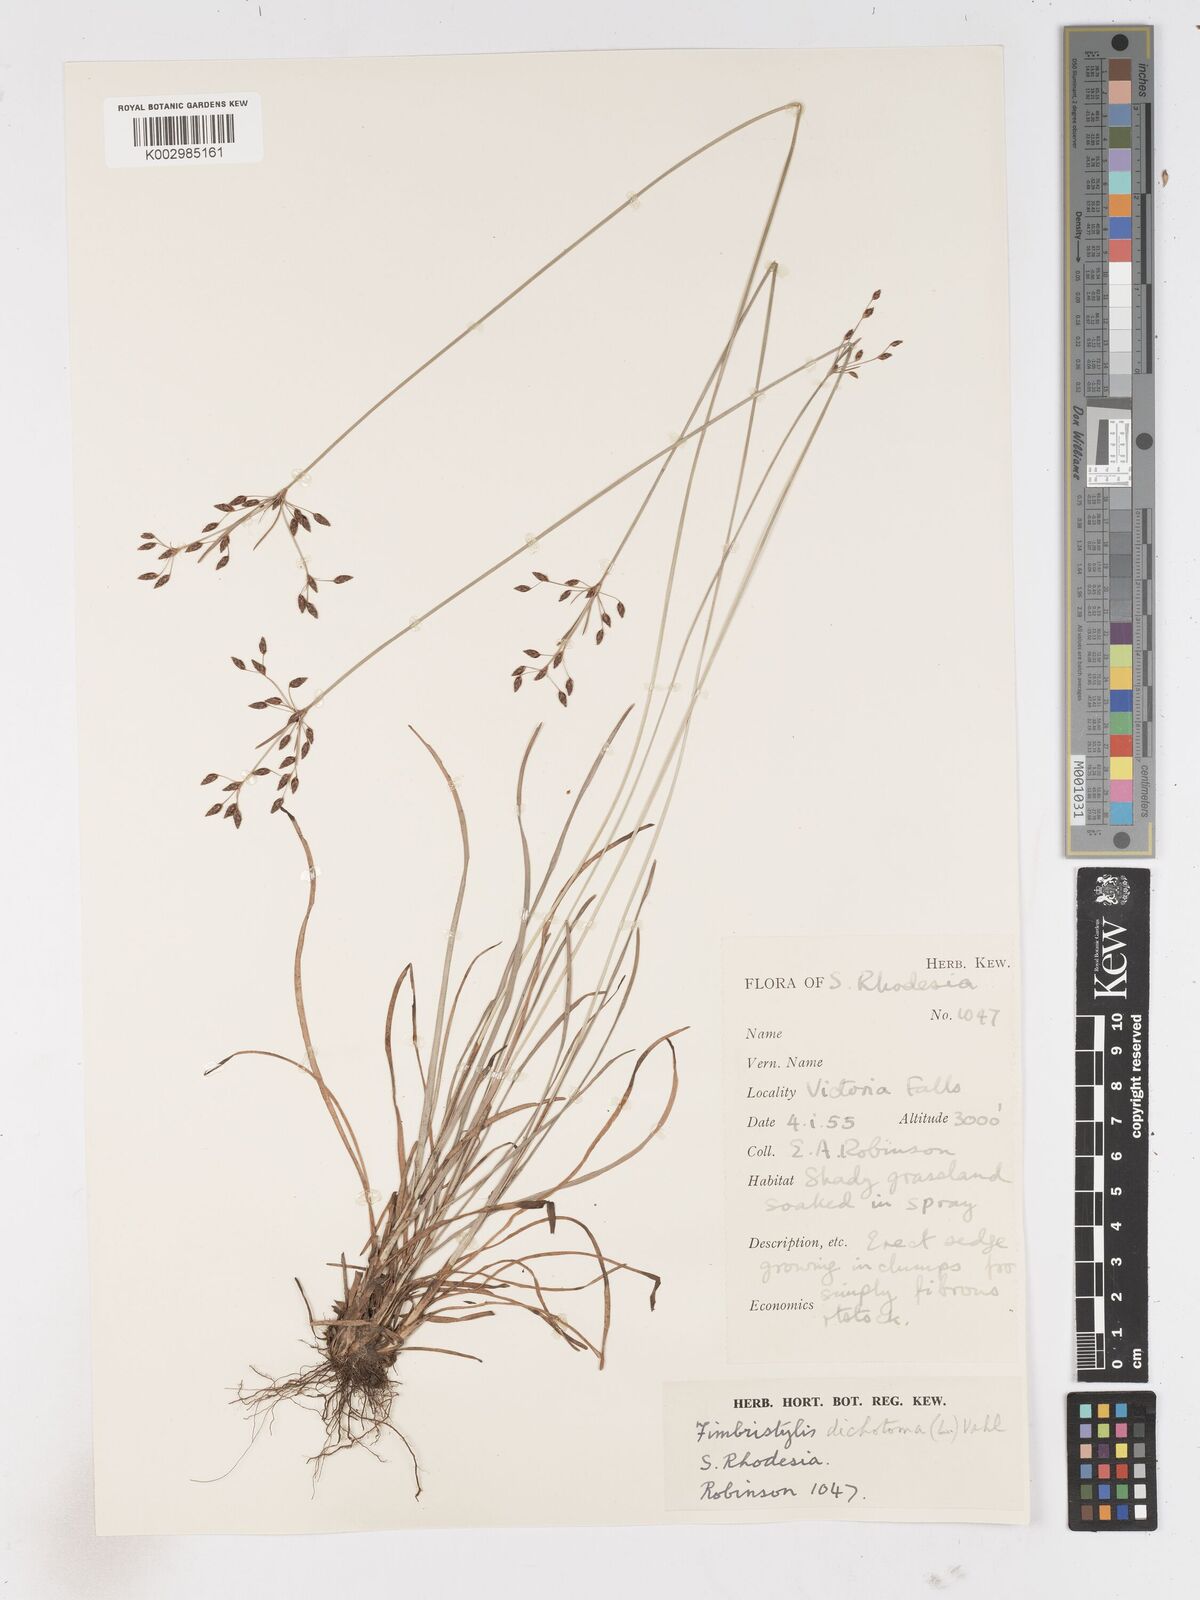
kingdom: Plantae
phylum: Tracheophyta
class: Liliopsida
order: Poales
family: Cyperaceae
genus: Fimbristylis
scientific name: Fimbristylis dichotoma
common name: Forked fimbry
